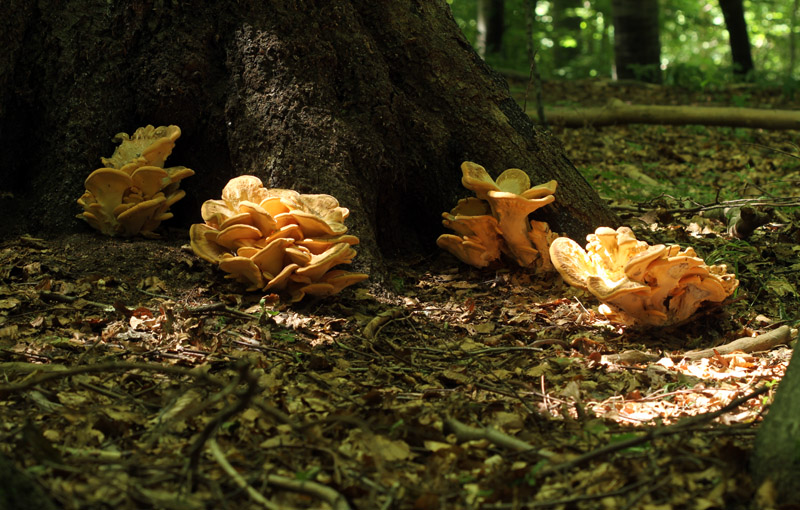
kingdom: Fungi
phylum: Basidiomycota
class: Agaricomycetes
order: Polyporales
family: Meripilaceae
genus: Meripilus
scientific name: Meripilus giganteus
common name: kæmpeporesvamp
